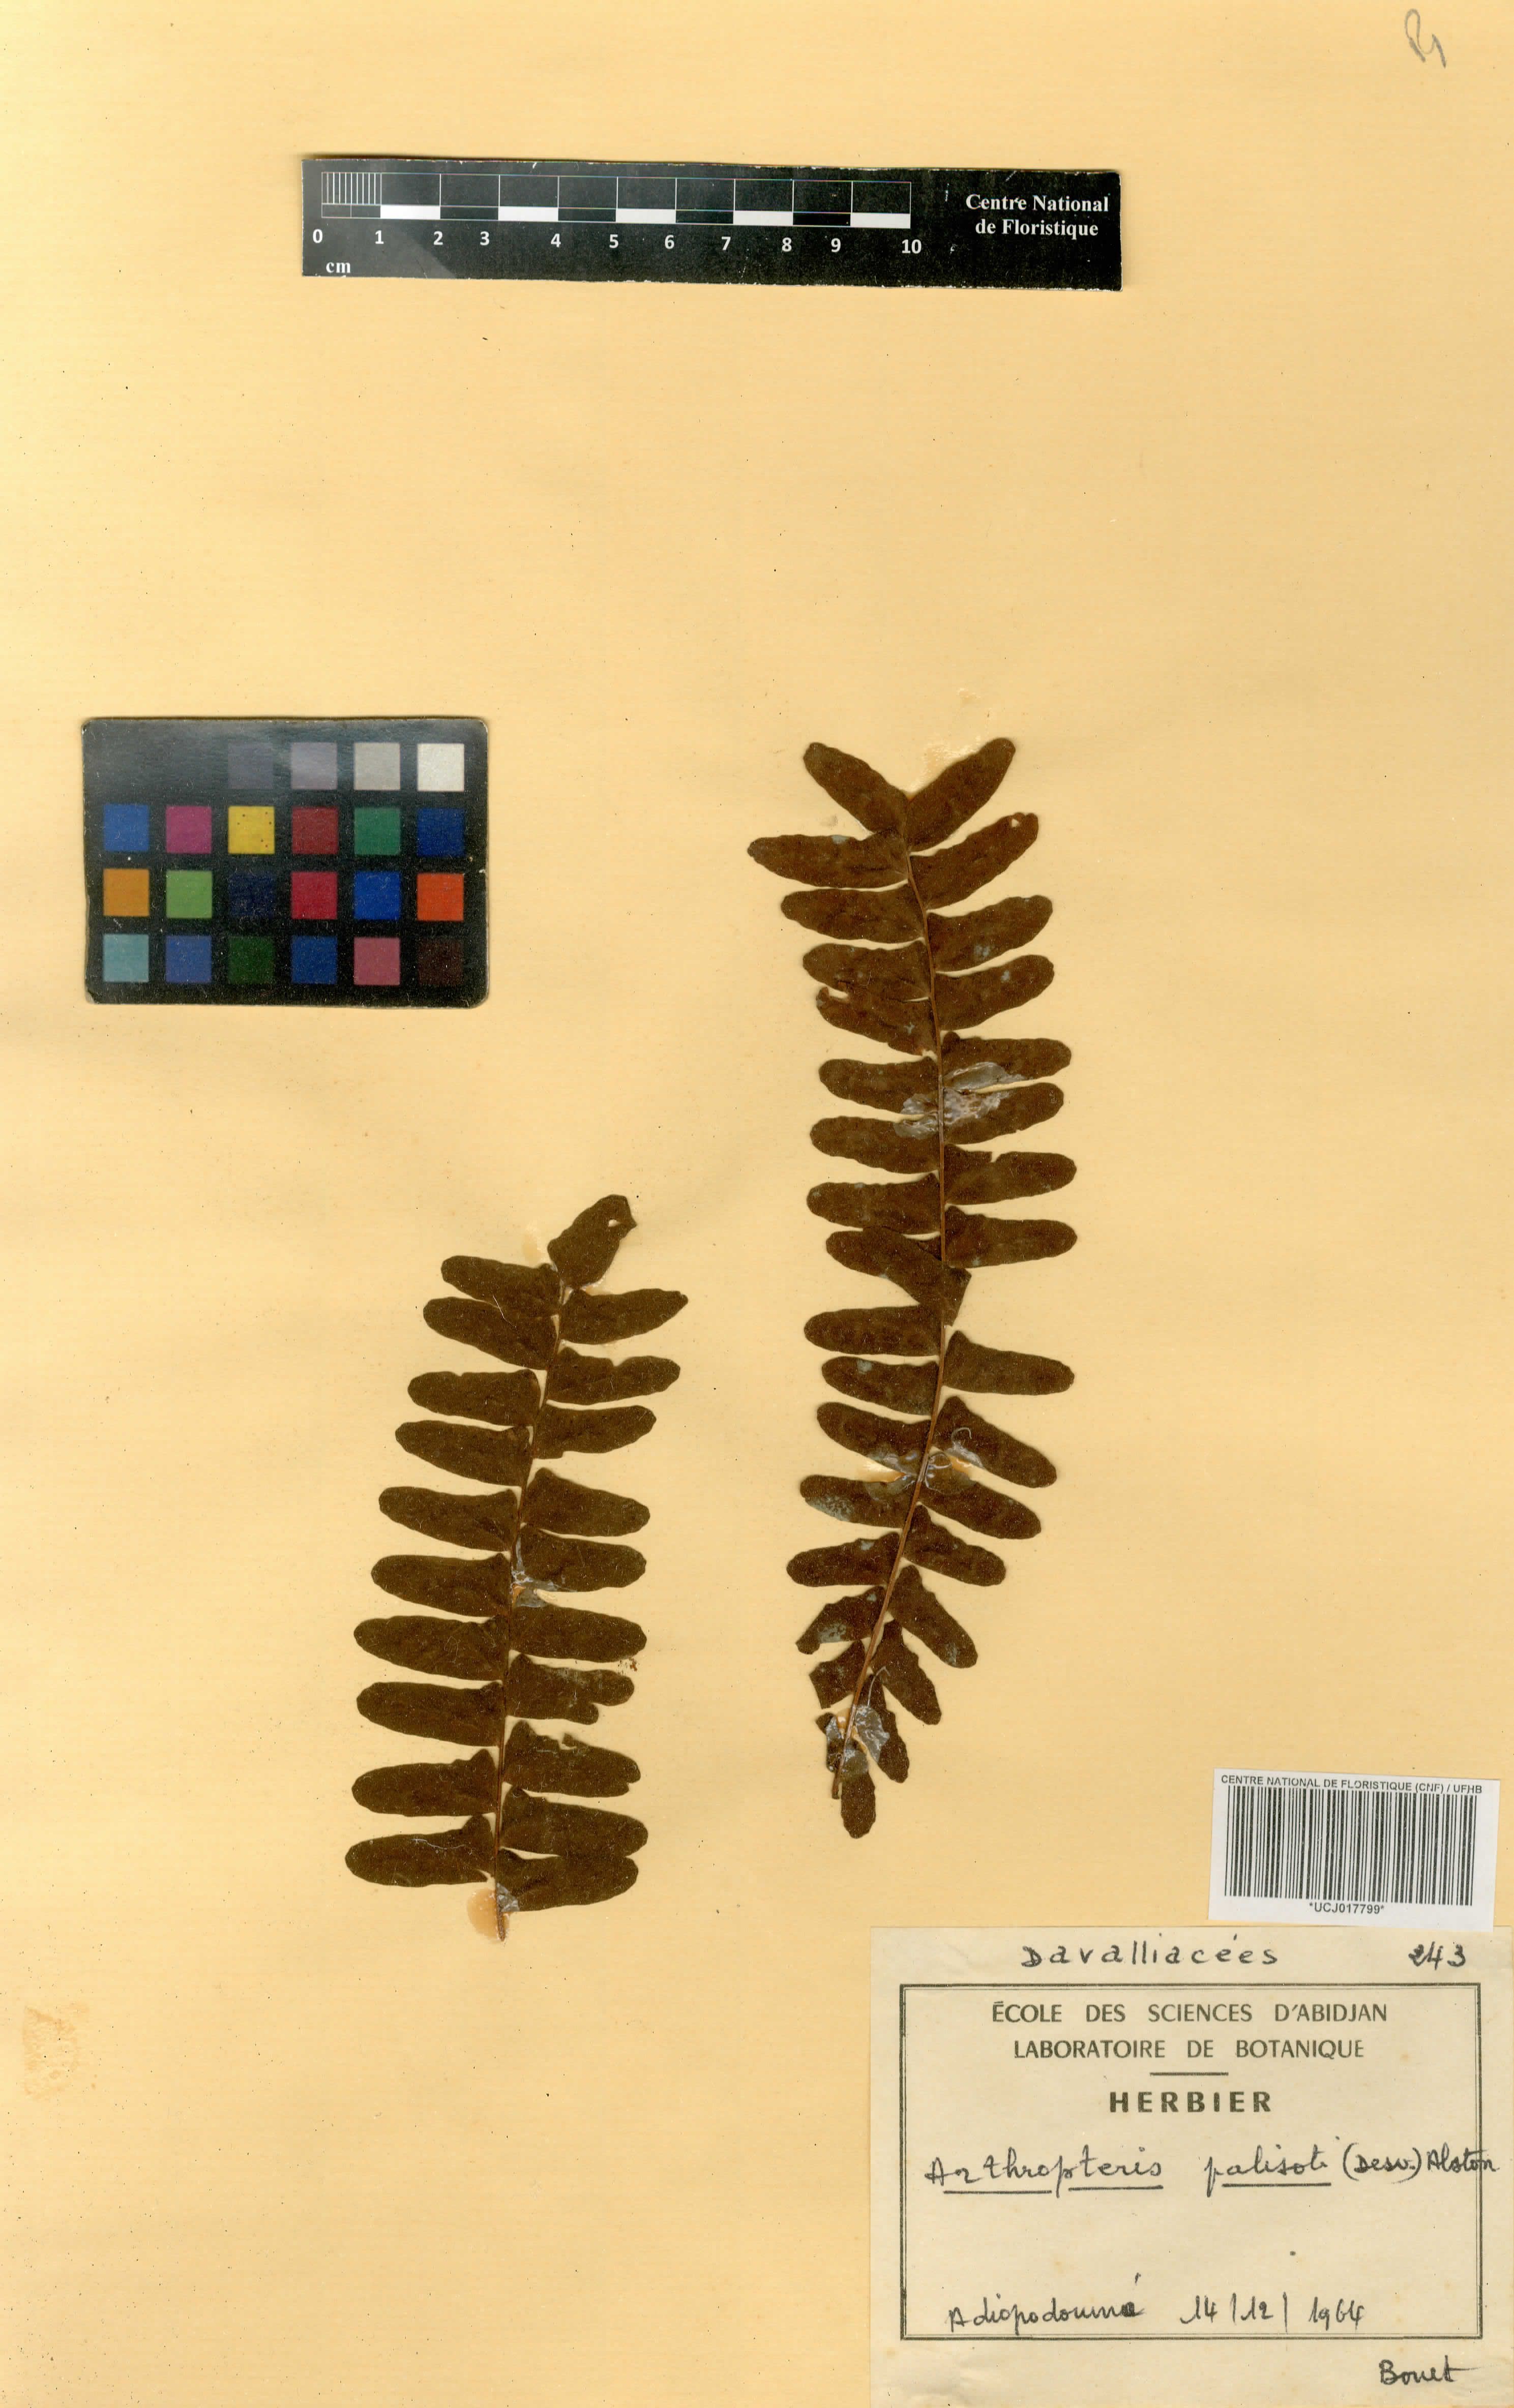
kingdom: Plantae
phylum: Tracheophyta
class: Polypodiopsida
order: Polypodiales
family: Tectariaceae
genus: Arthropteris
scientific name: Arthropteris palisotii
